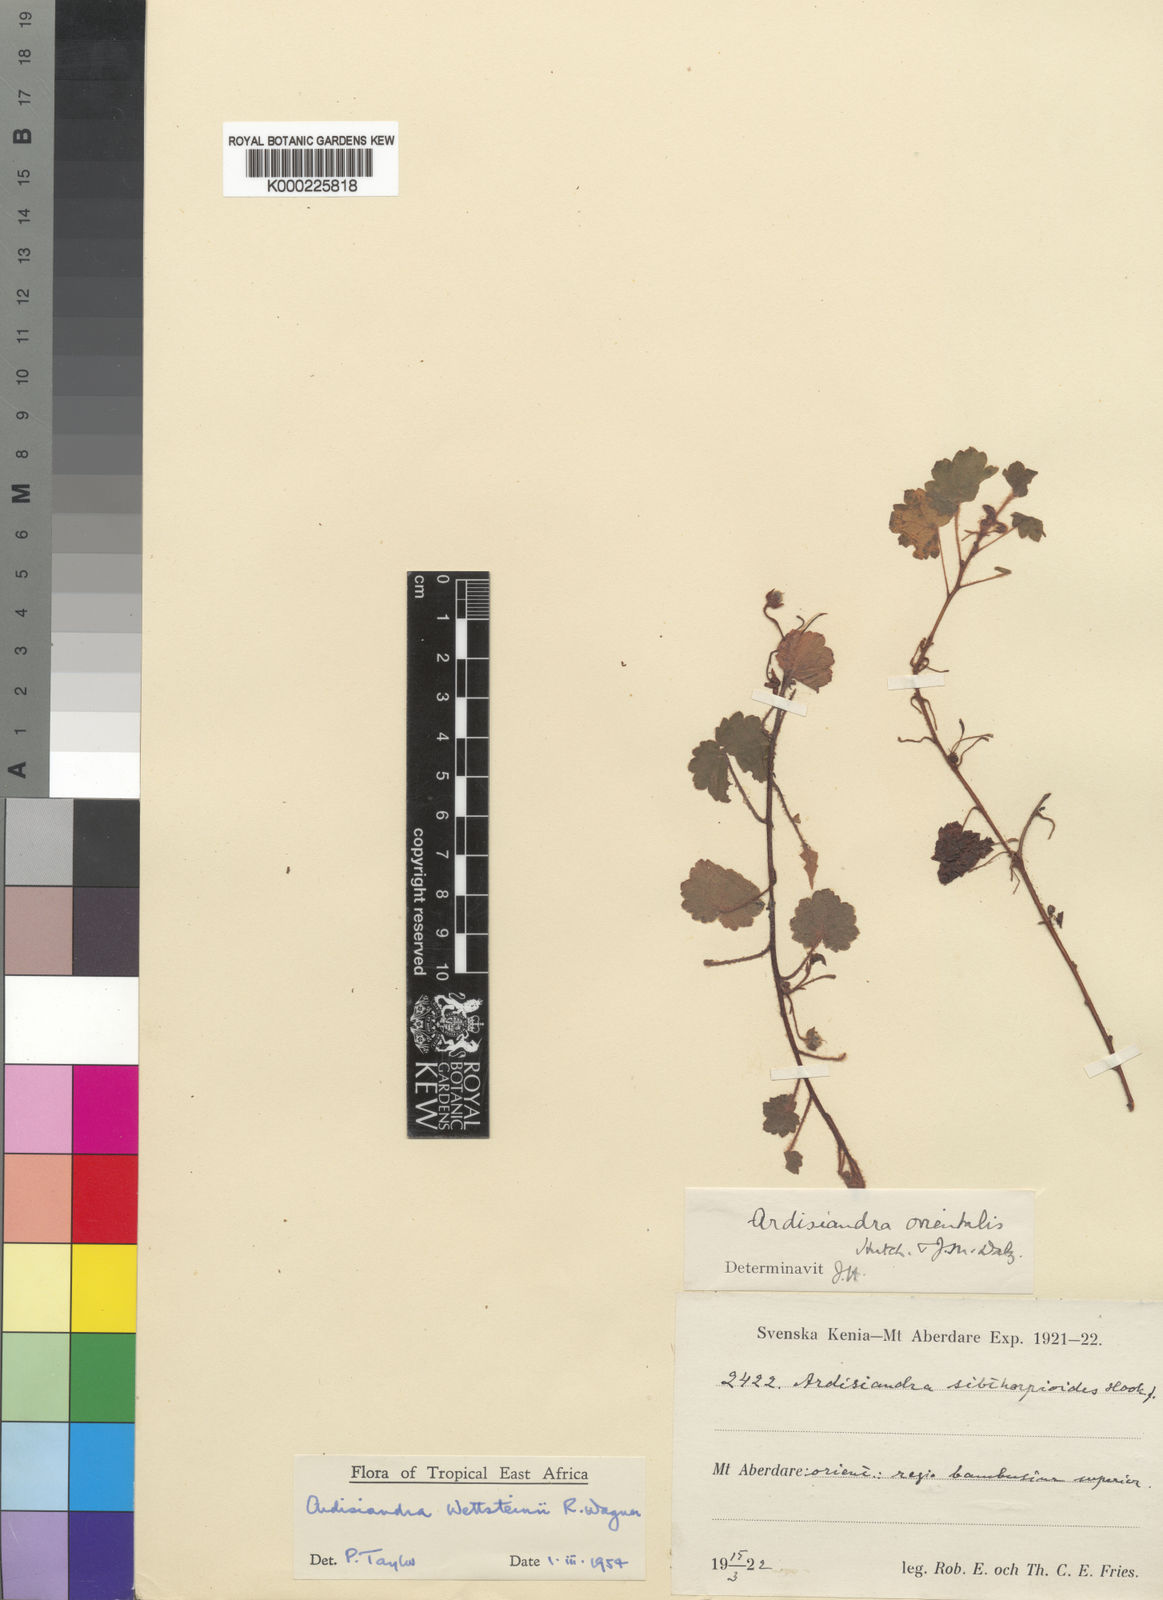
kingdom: Plantae
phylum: Tracheophyta
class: Magnoliopsida
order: Ericales
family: Primulaceae
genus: Ardisiandra
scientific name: Ardisiandra wettsteinii
